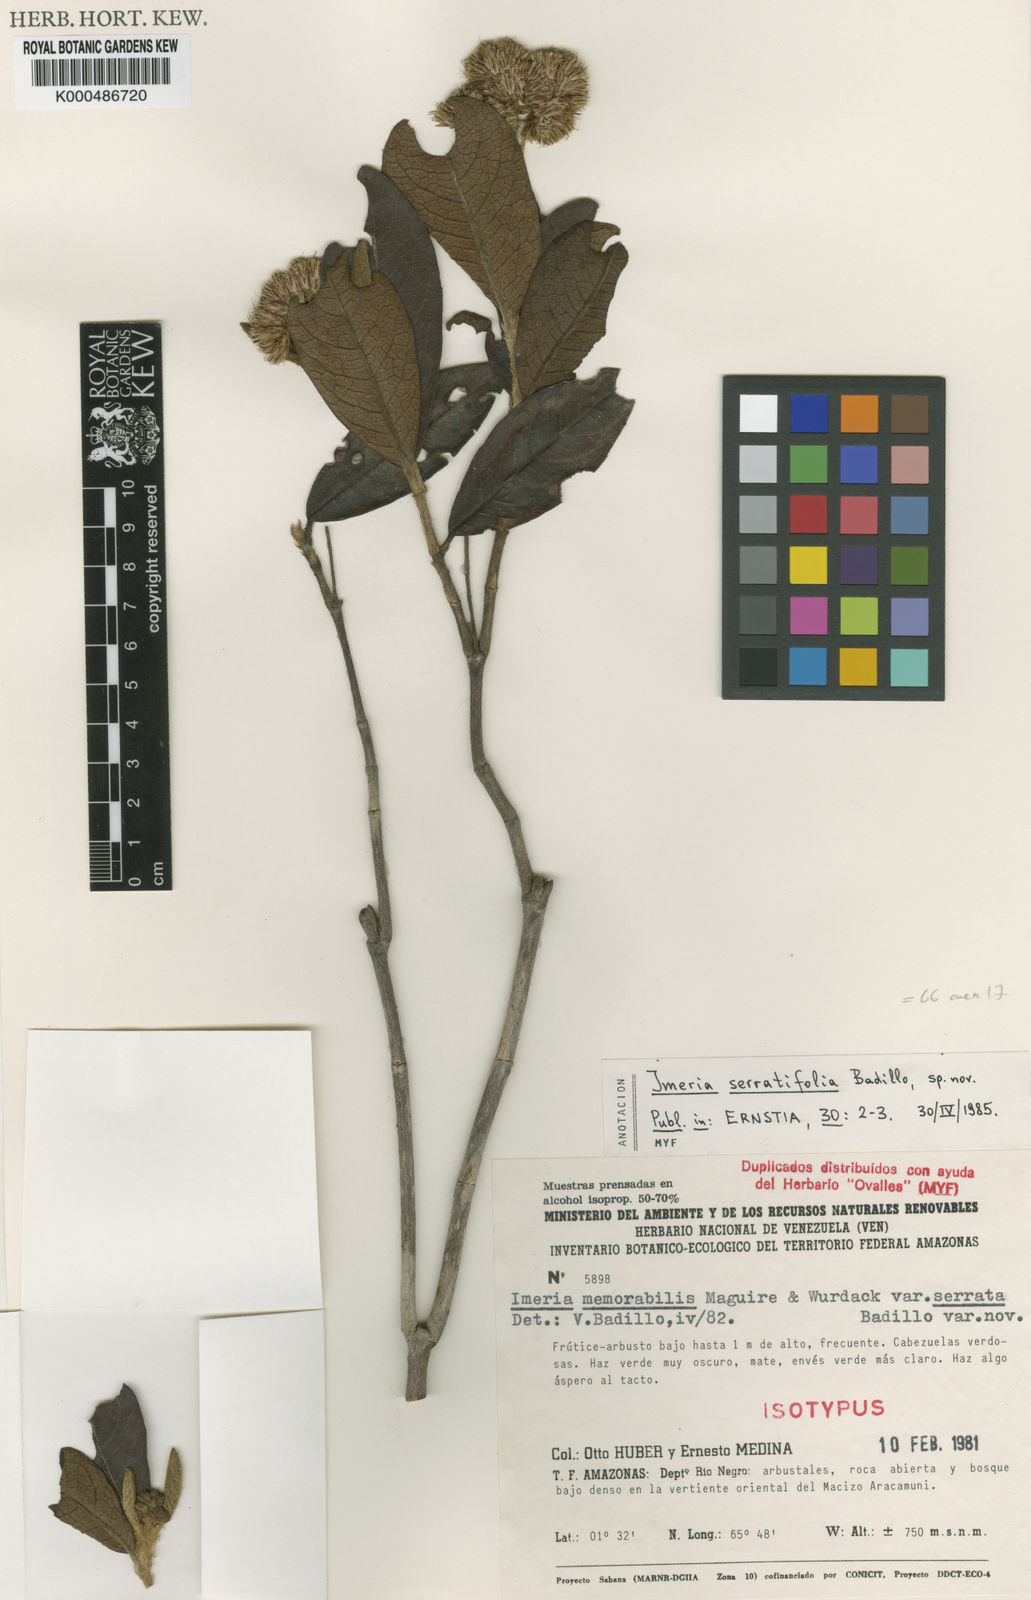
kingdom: Plantae
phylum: Tracheophyta
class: Magnoliopsida
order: Asterales
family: Asteraceae
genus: Imeria
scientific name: Imeria memorabilis
